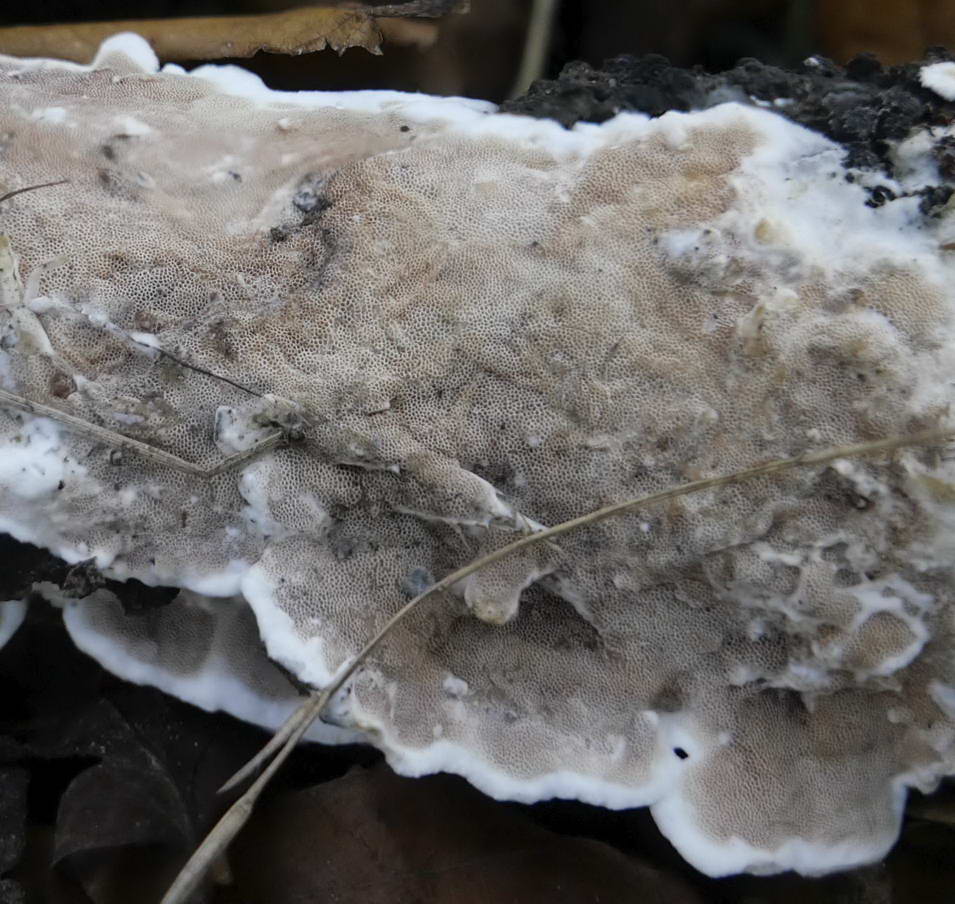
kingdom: Fungi
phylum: Basidiomycota
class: Agaricomycetes
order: Polyporales
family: Irpicaceae
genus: Vitreoporus
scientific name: Vitreoporus dichrous
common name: tofarvet foldporesvamp
